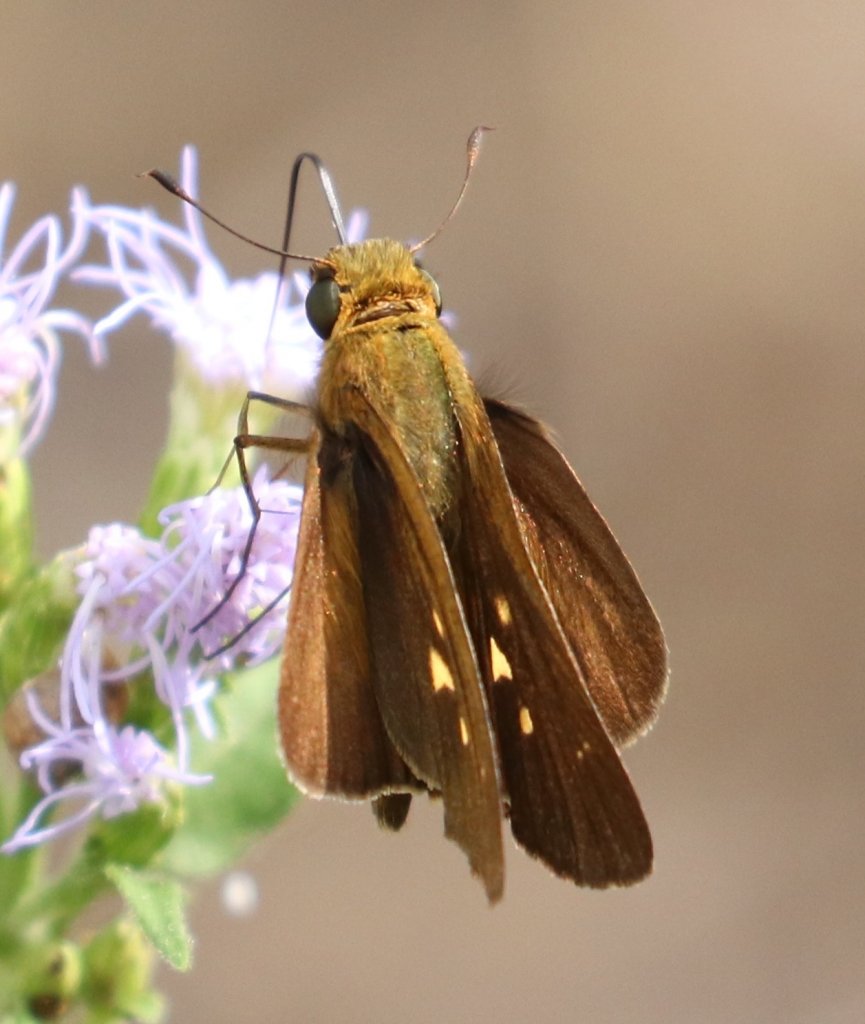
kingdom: Animalia
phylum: Arthropoda
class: Insecta
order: Lepidoptera
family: Hesperiidae
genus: Panoquina
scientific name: Panoquina hecebolus
